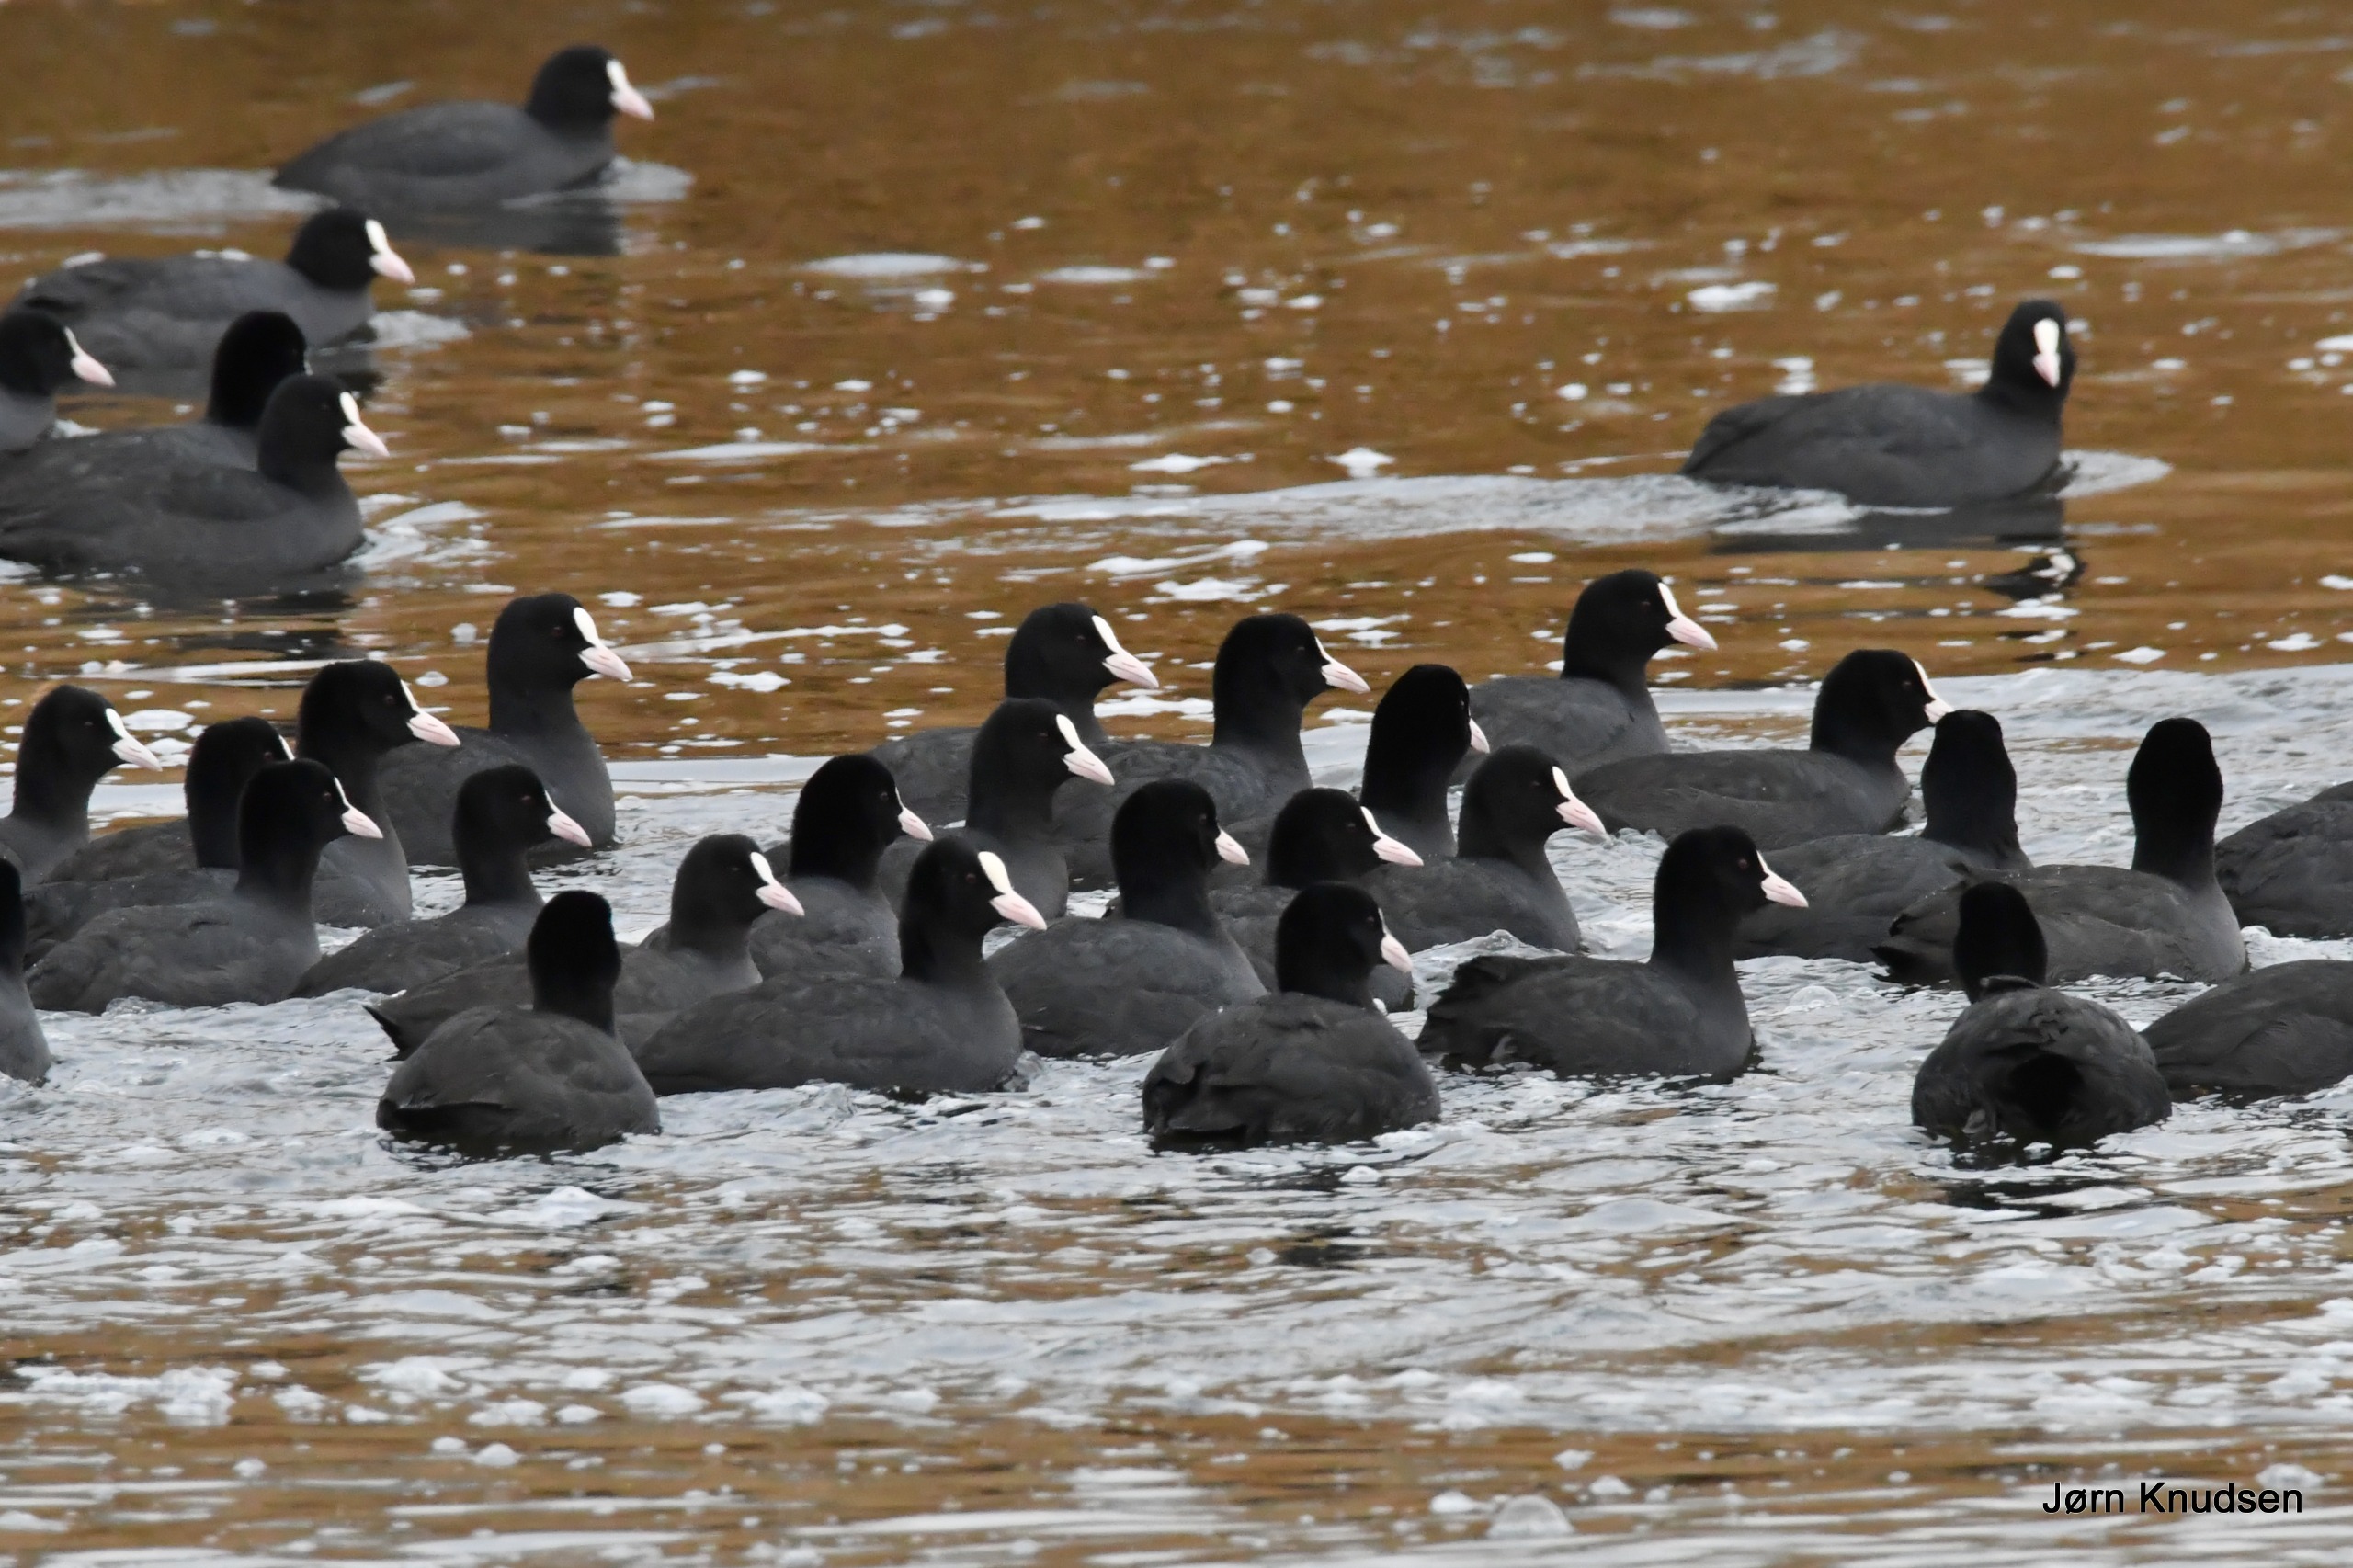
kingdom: Animalia
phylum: Chordata
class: Aves
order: Gruiformes
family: Rallidae
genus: Fulica
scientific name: Fulica atra
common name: Blishøne
